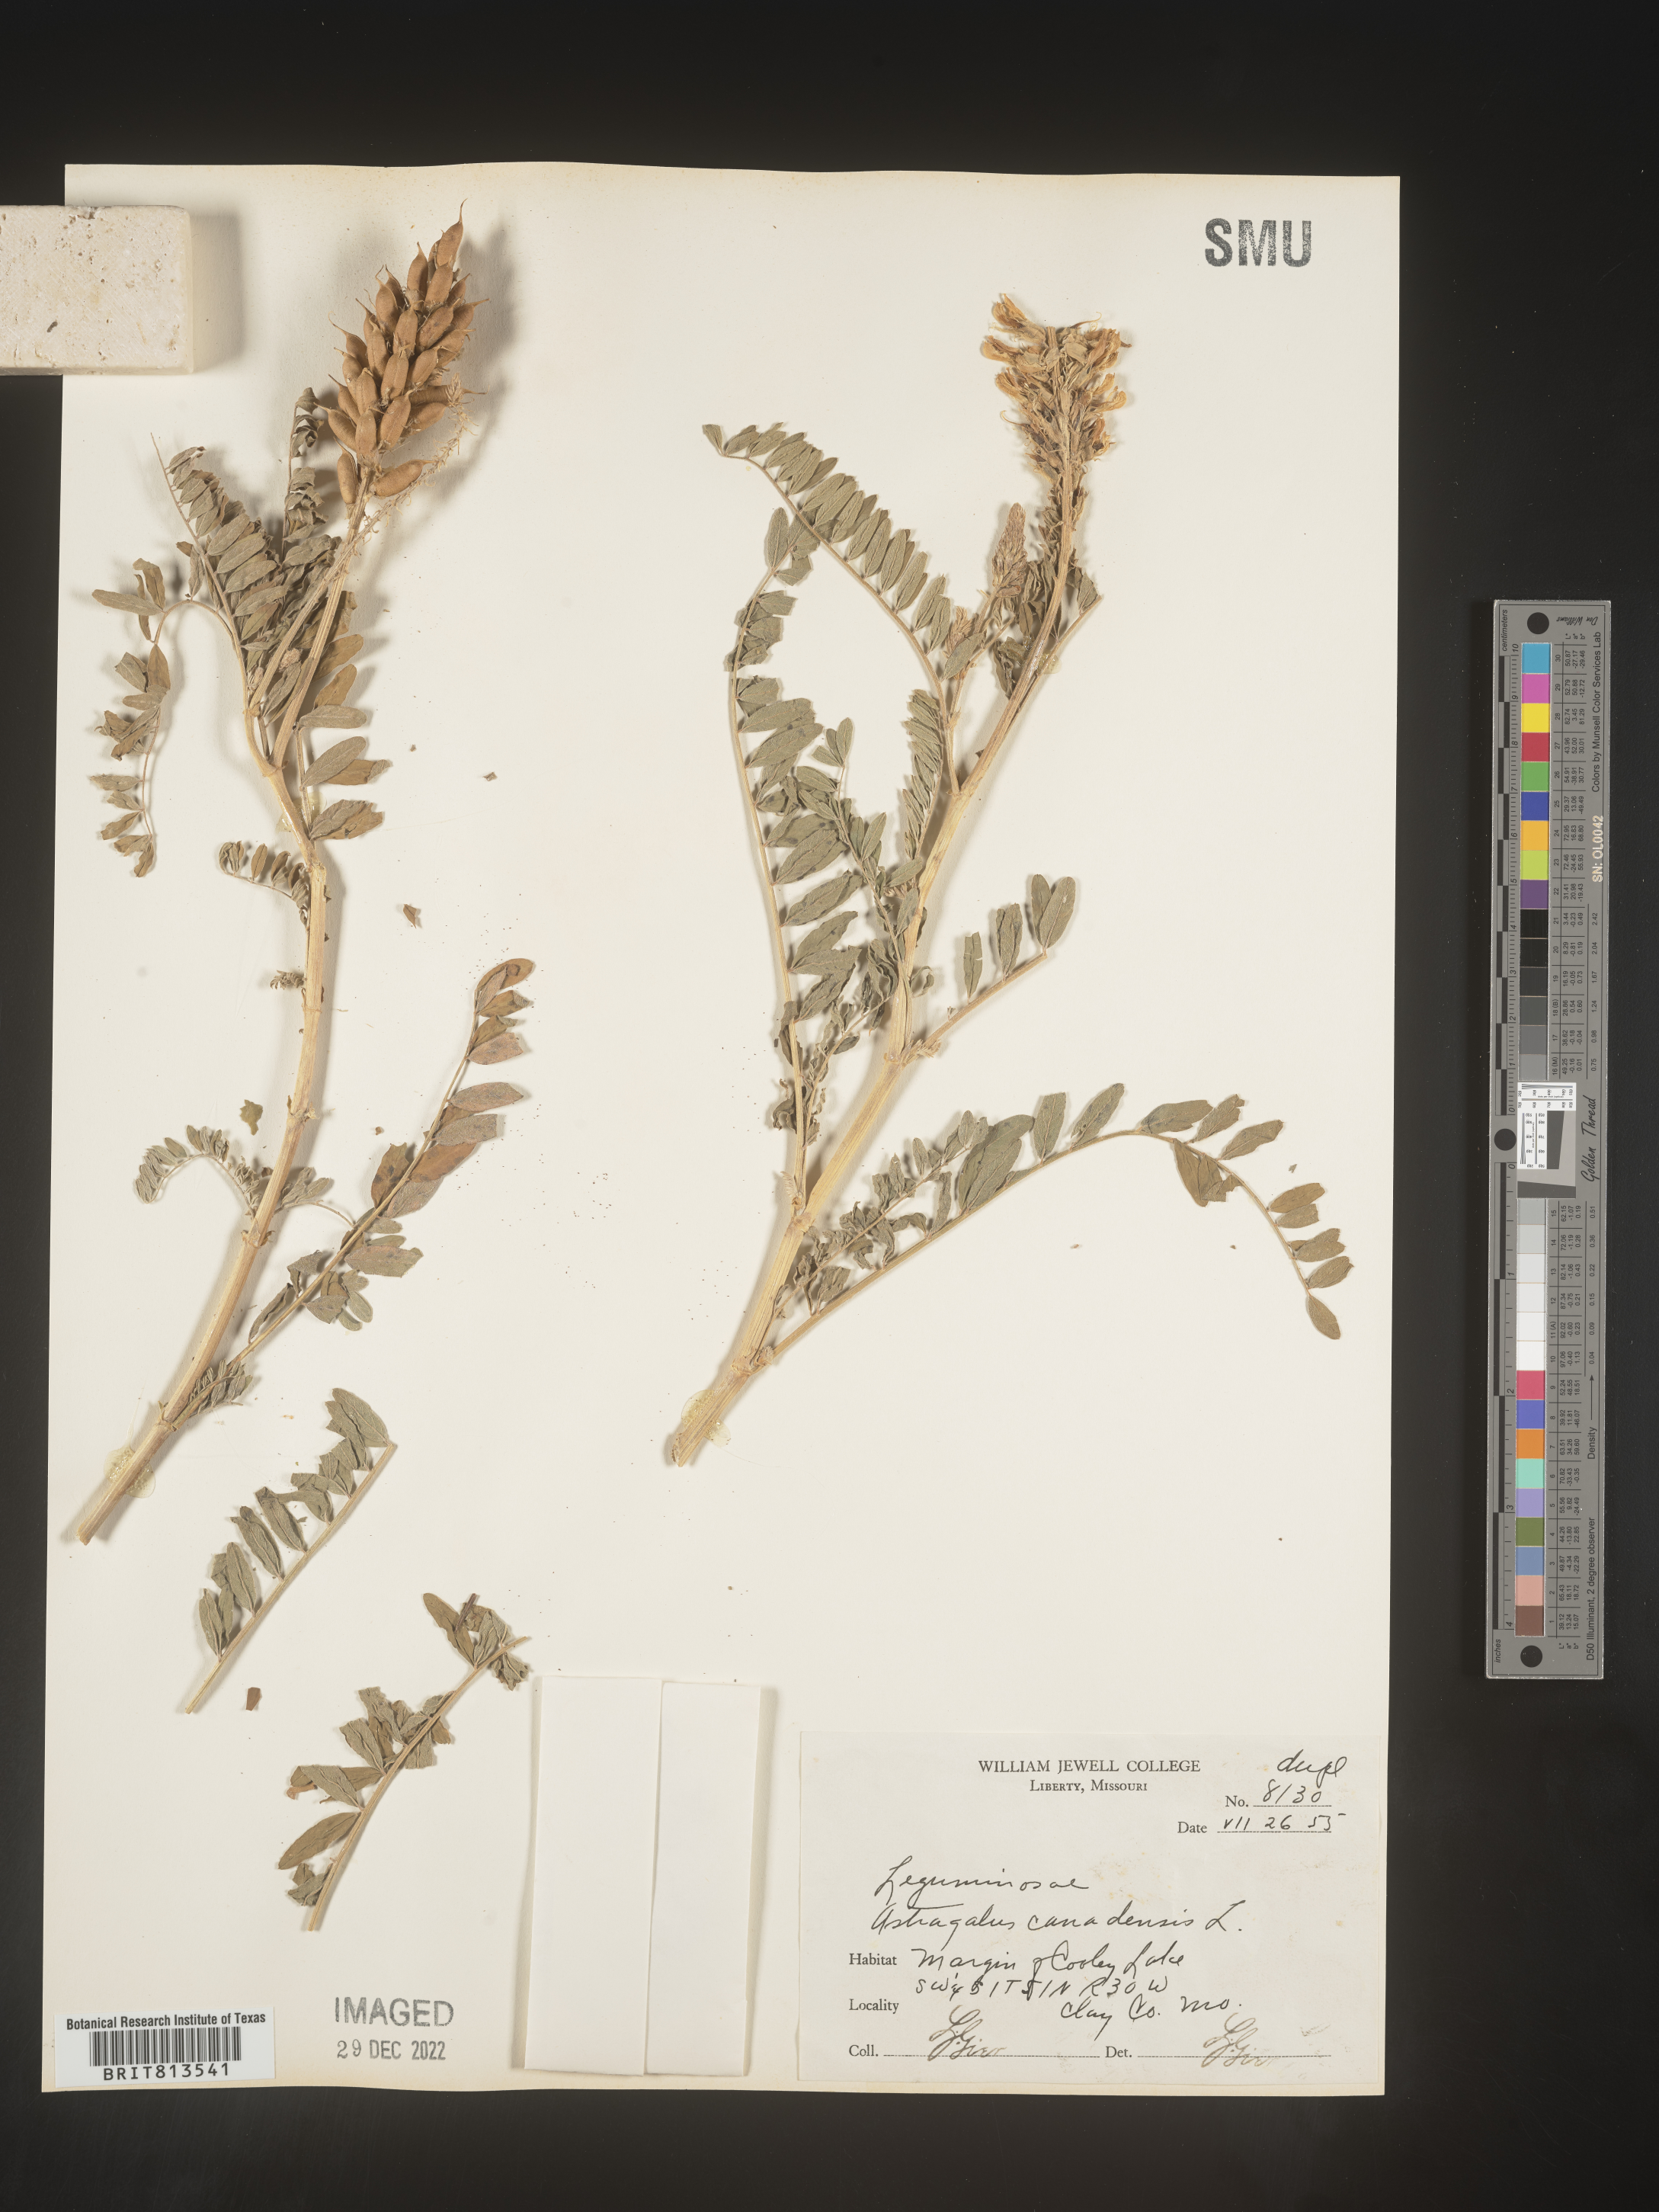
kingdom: Plantae
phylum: Tracheophyta
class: Magnoliopsida
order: Fabales
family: Fabaceae
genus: Astragalus
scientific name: Astragalus canadensis
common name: Canada milk-vetch
